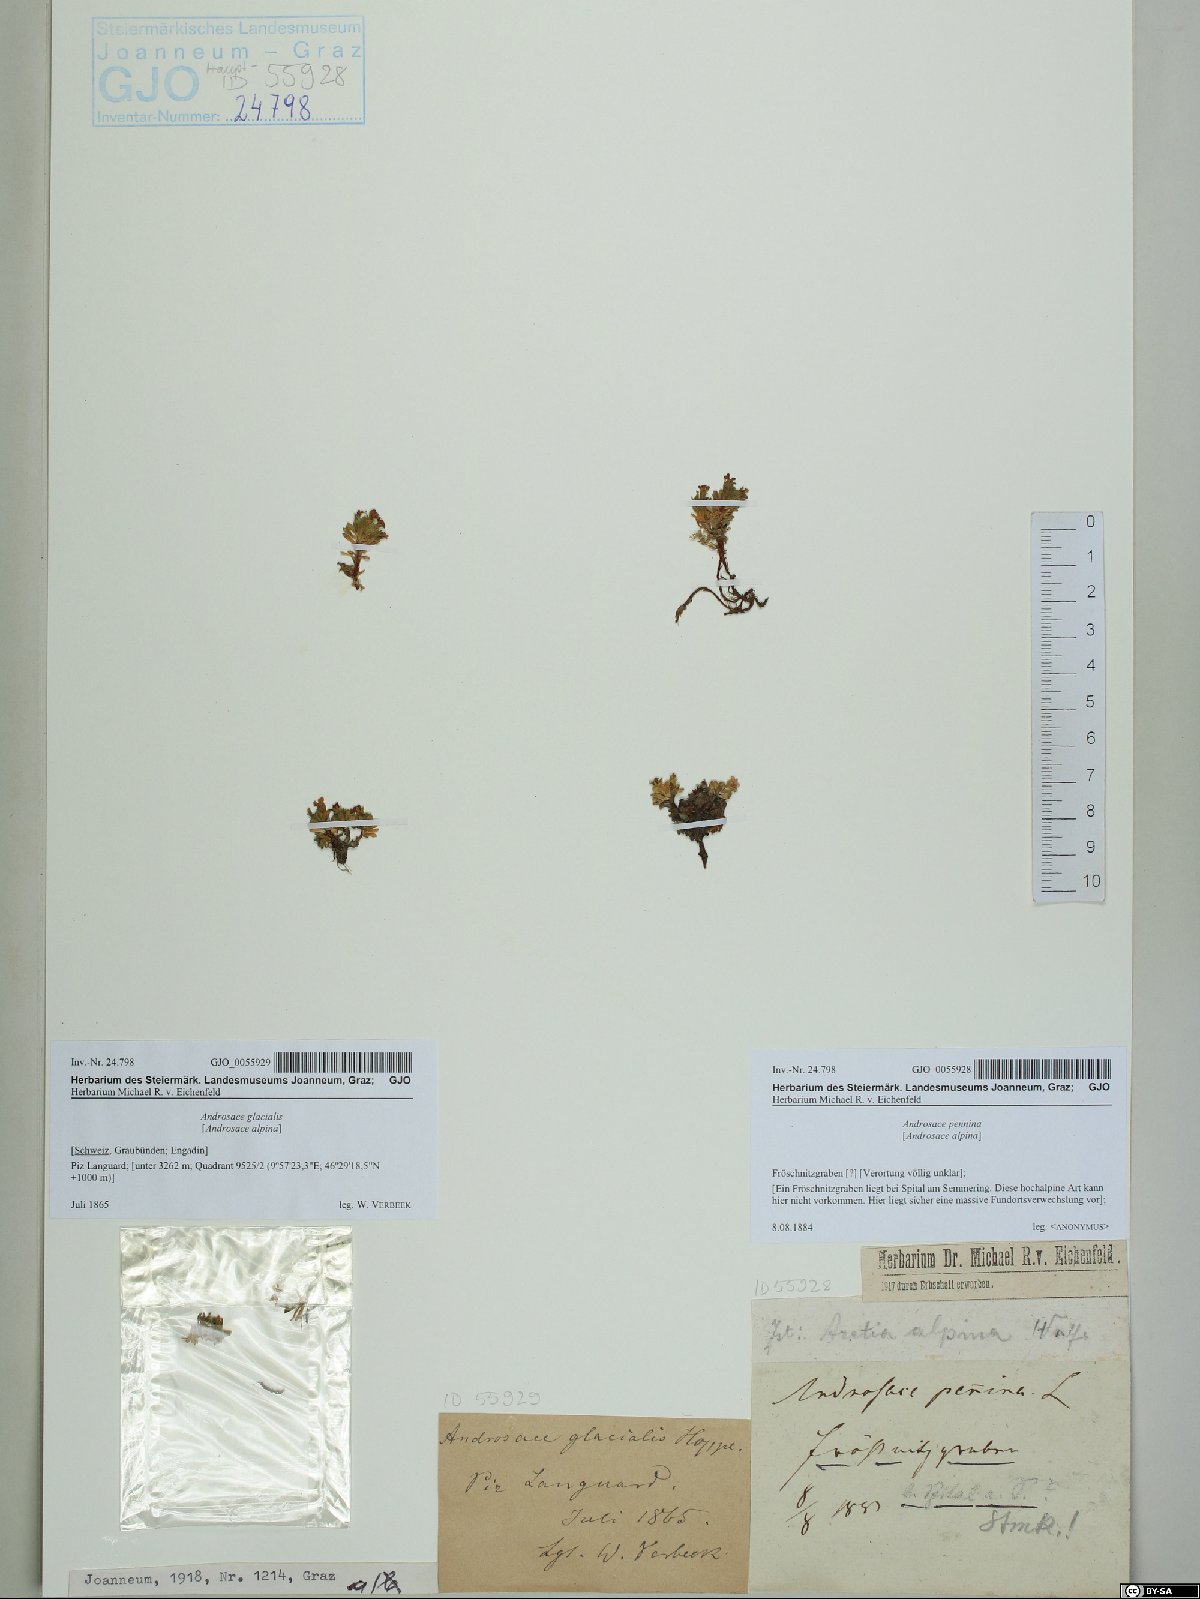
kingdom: Plantae
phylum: Tracheophyta
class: Magnoliopsida
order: Ericales
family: Primulaceae
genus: Androsace
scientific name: Androsace alpina
